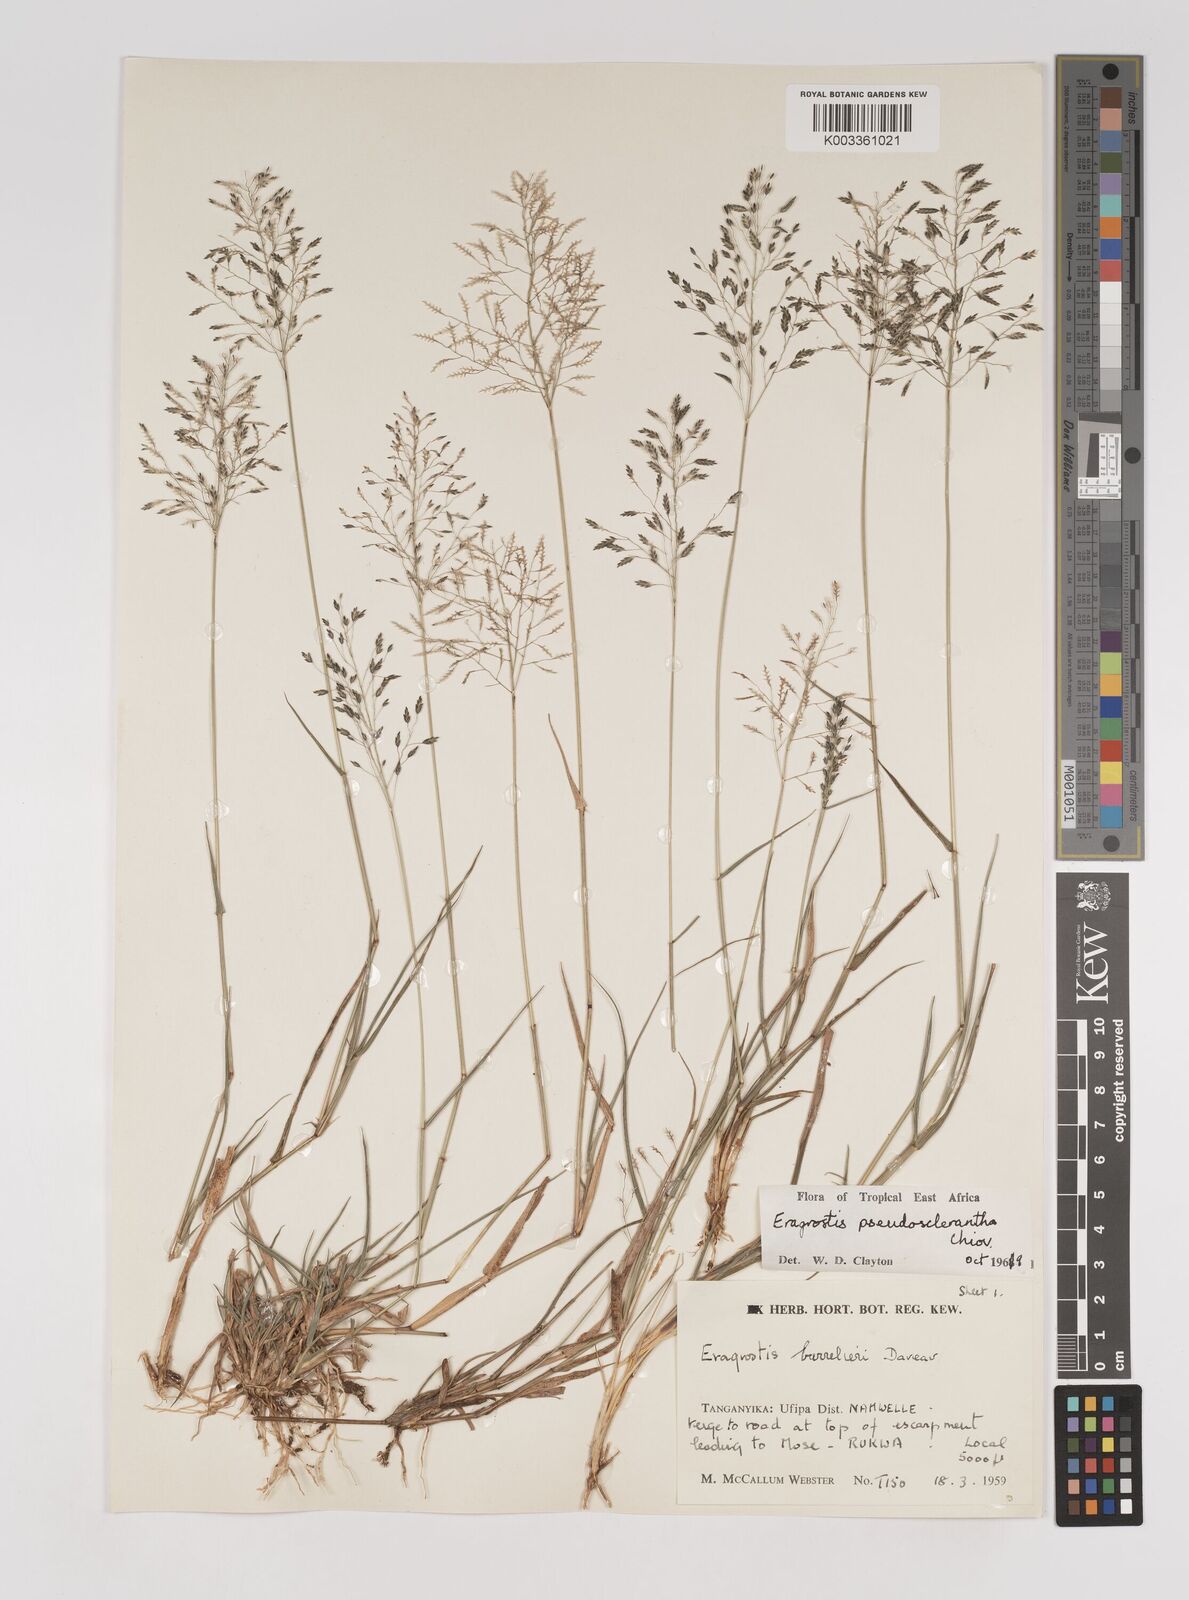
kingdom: Plantae
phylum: Tracheophyta
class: Liliopsida
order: Poales
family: Poaceae
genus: Eragrostis
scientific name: Eragrostis patentipilosa
